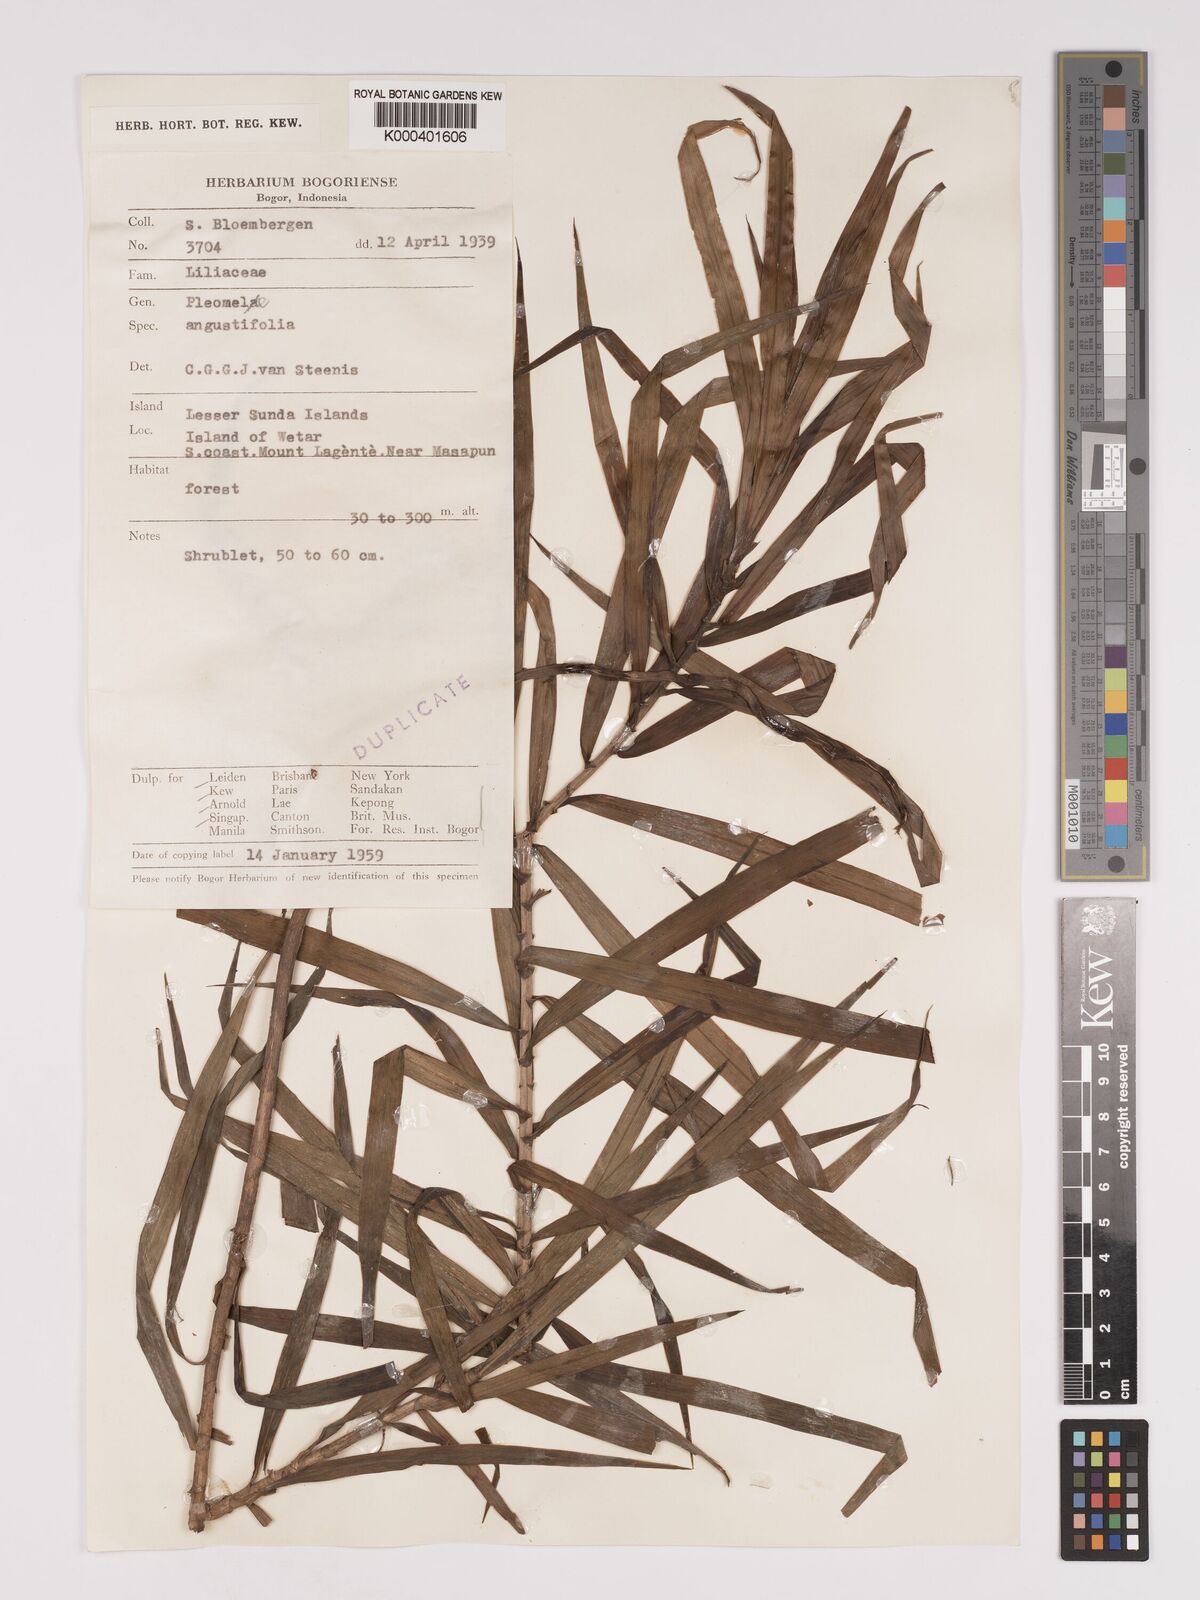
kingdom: Plantae
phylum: Tracheophyta
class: Liliopsida
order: Asparagales
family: Asparagaceae
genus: Dracaena
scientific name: Dracaena angustifolia
